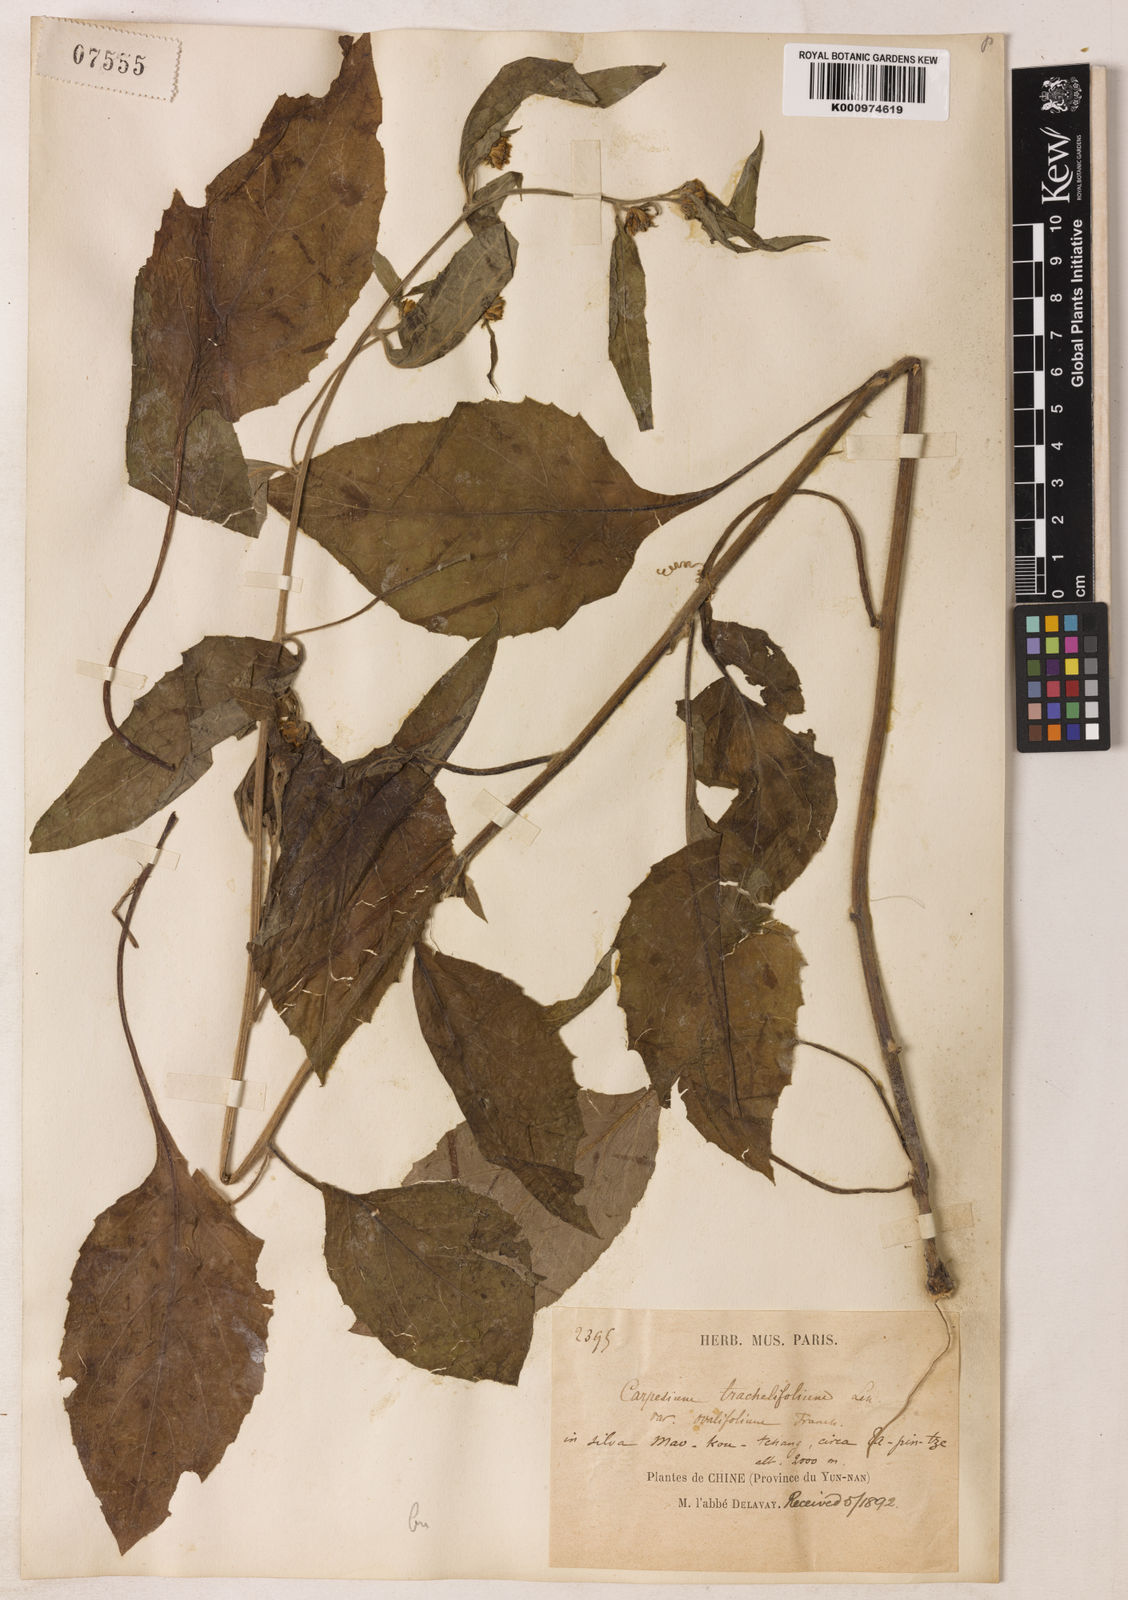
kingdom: Plantae
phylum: Tracheophyta
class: Magnoliopsida
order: Asterales
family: Asteraceae
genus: Carpesium
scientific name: Carpesium trachelifolium
